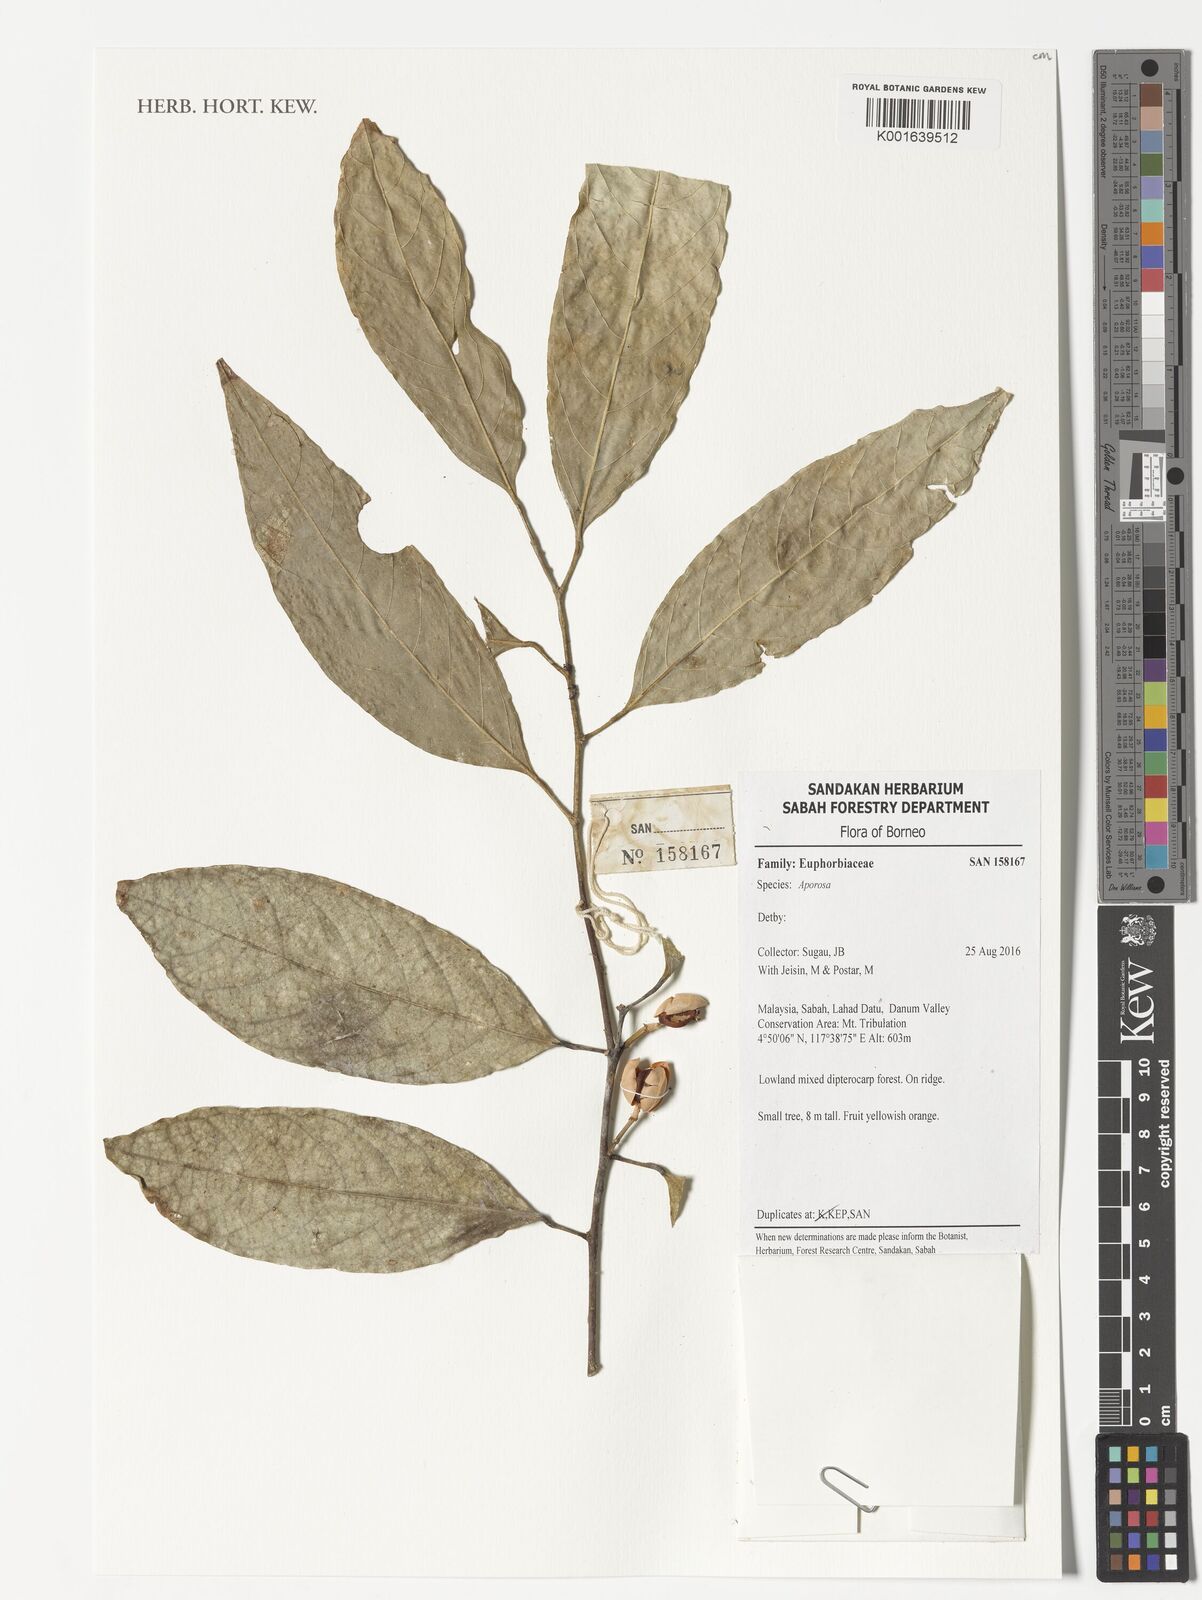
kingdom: Plantae
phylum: Tracheophyta
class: Magnoliopsida
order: Malpighiales
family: Phyllanthaceae
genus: Aporosa
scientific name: Aporosa
